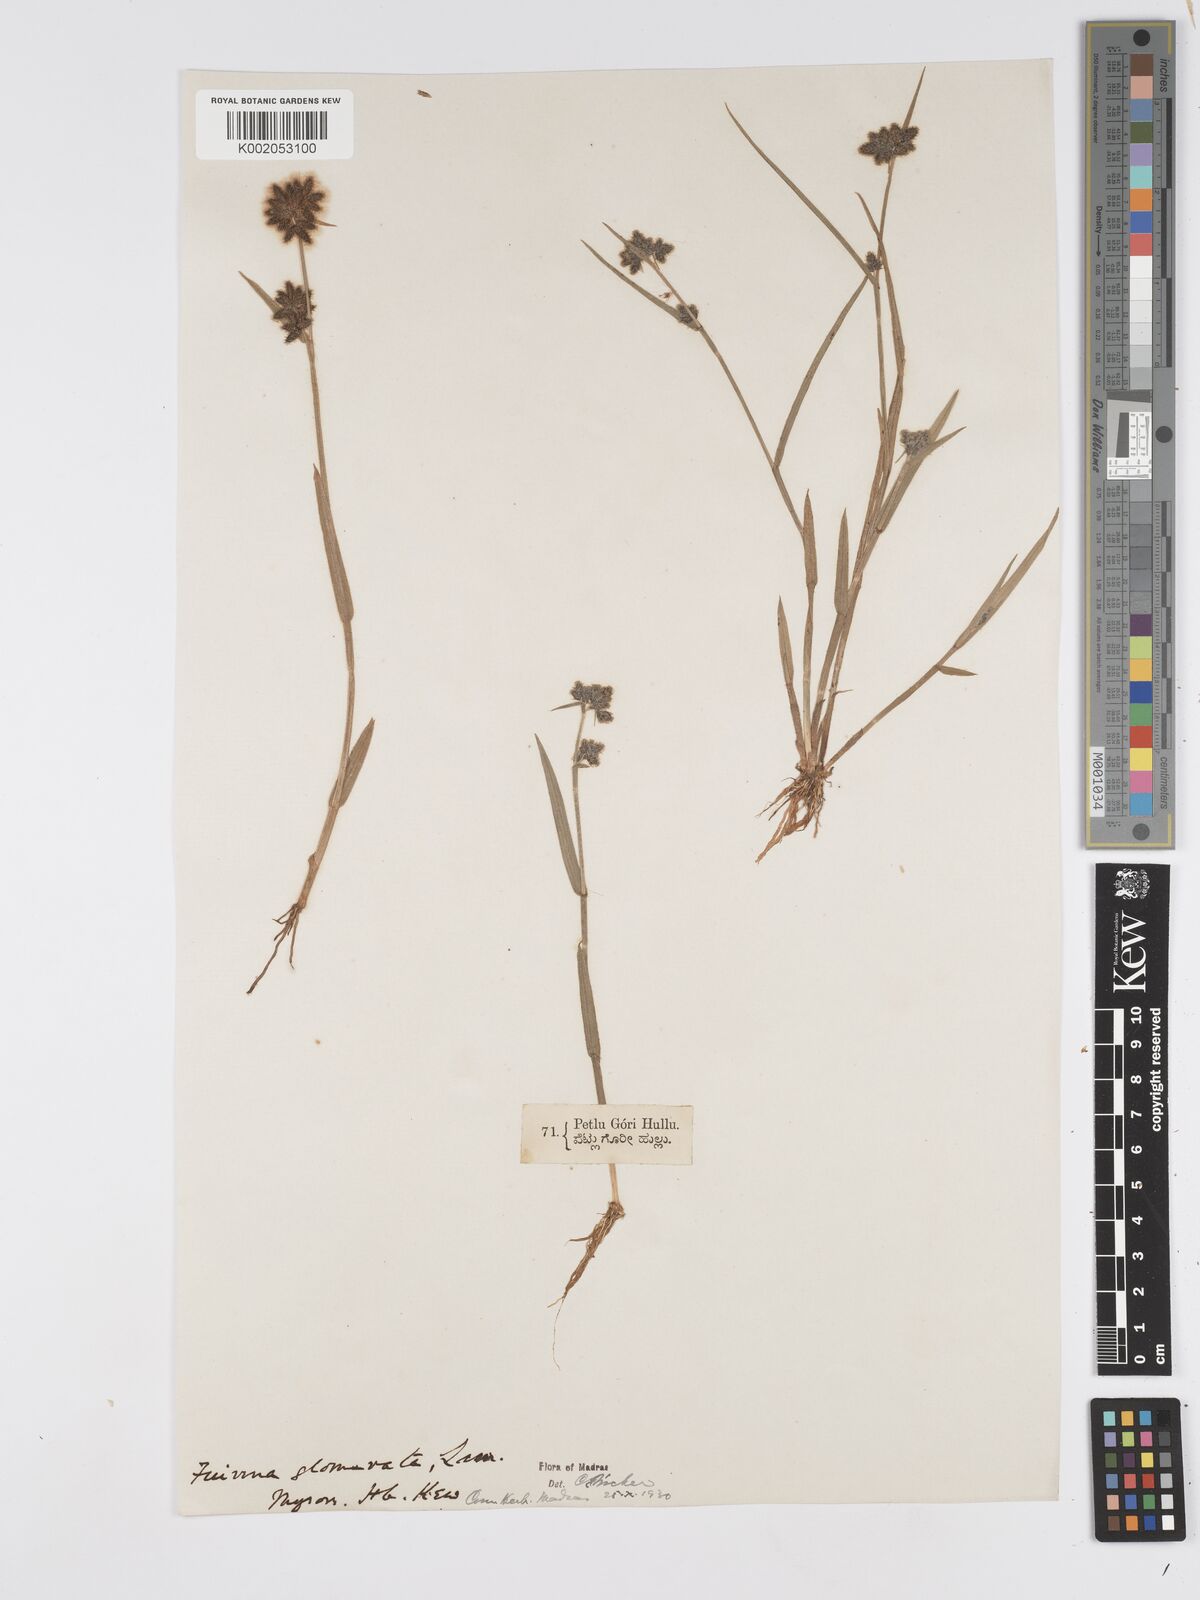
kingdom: Plantae
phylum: Tracheophyta
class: Liliopsida
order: Poales
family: Cyperaceae
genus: Fuirena
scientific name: Fuirena ciliaris
